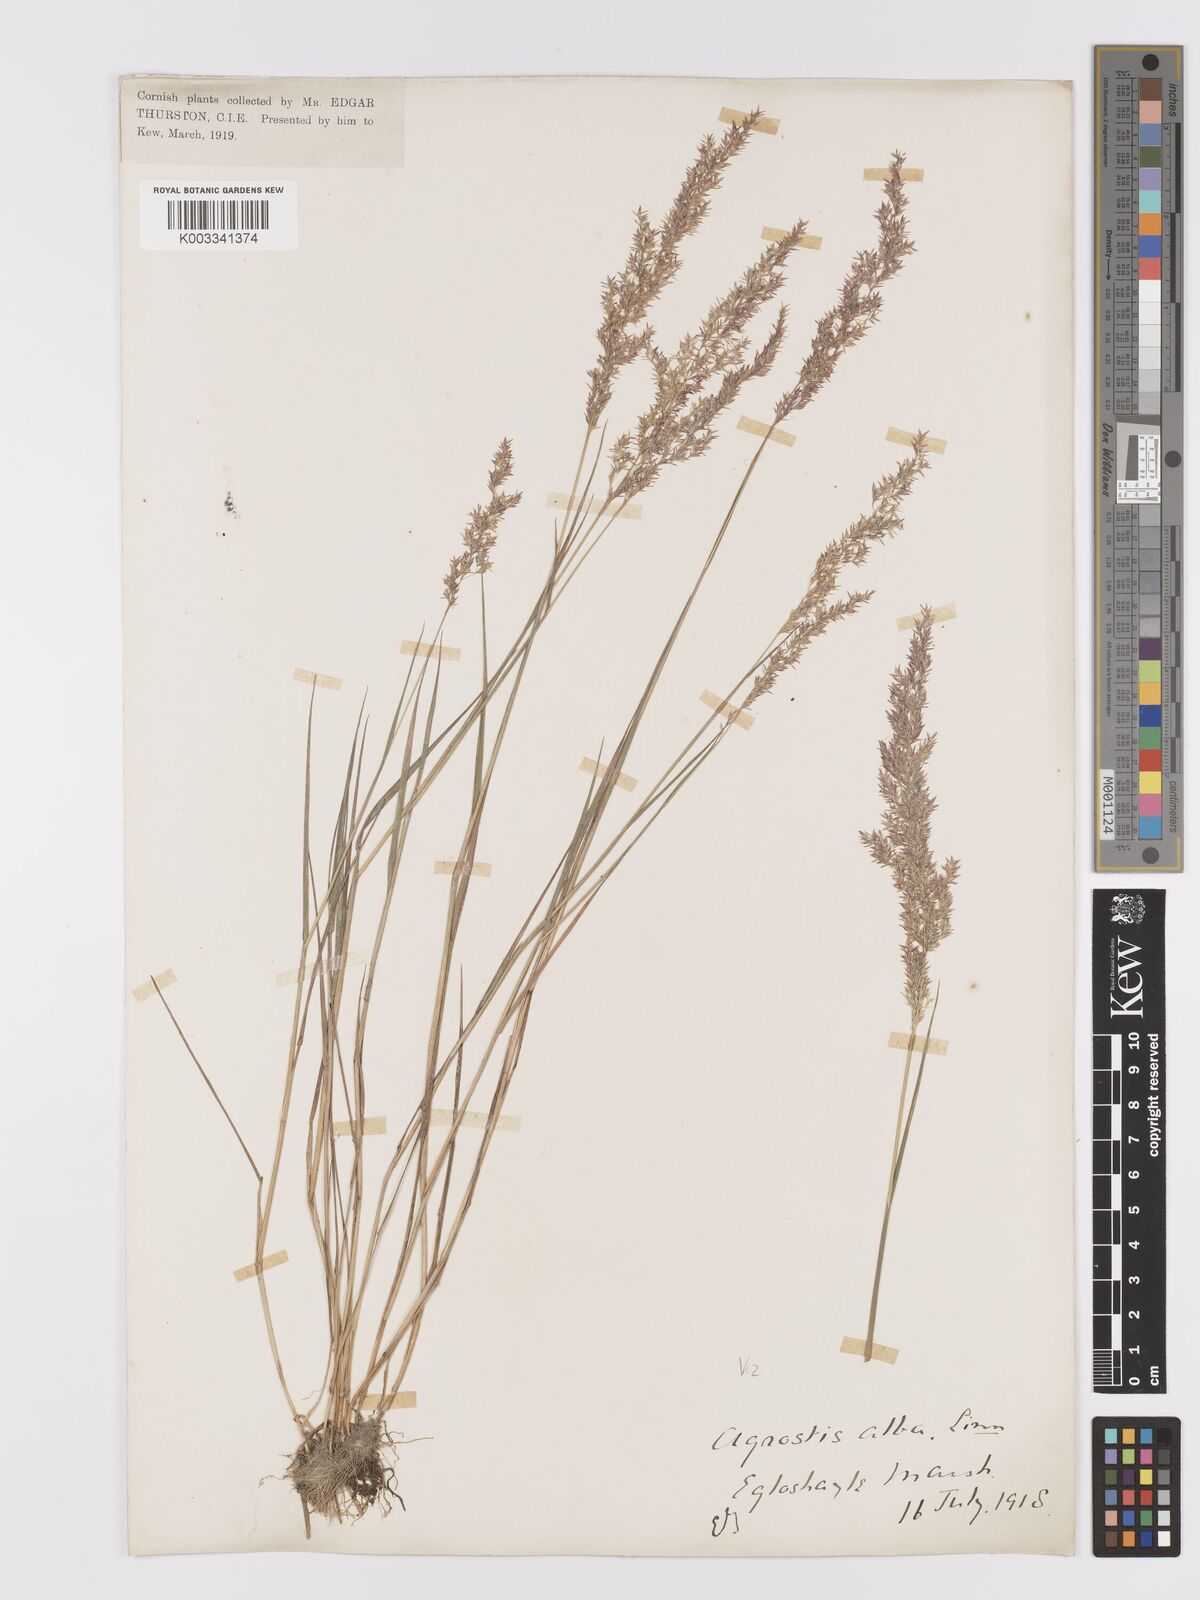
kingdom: Plantae
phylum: Tracheophyta
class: Liliopsida
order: Poales
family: Poaceae
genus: Agrostis
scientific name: Agrostis stolonifera
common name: Creeping bentgrass
